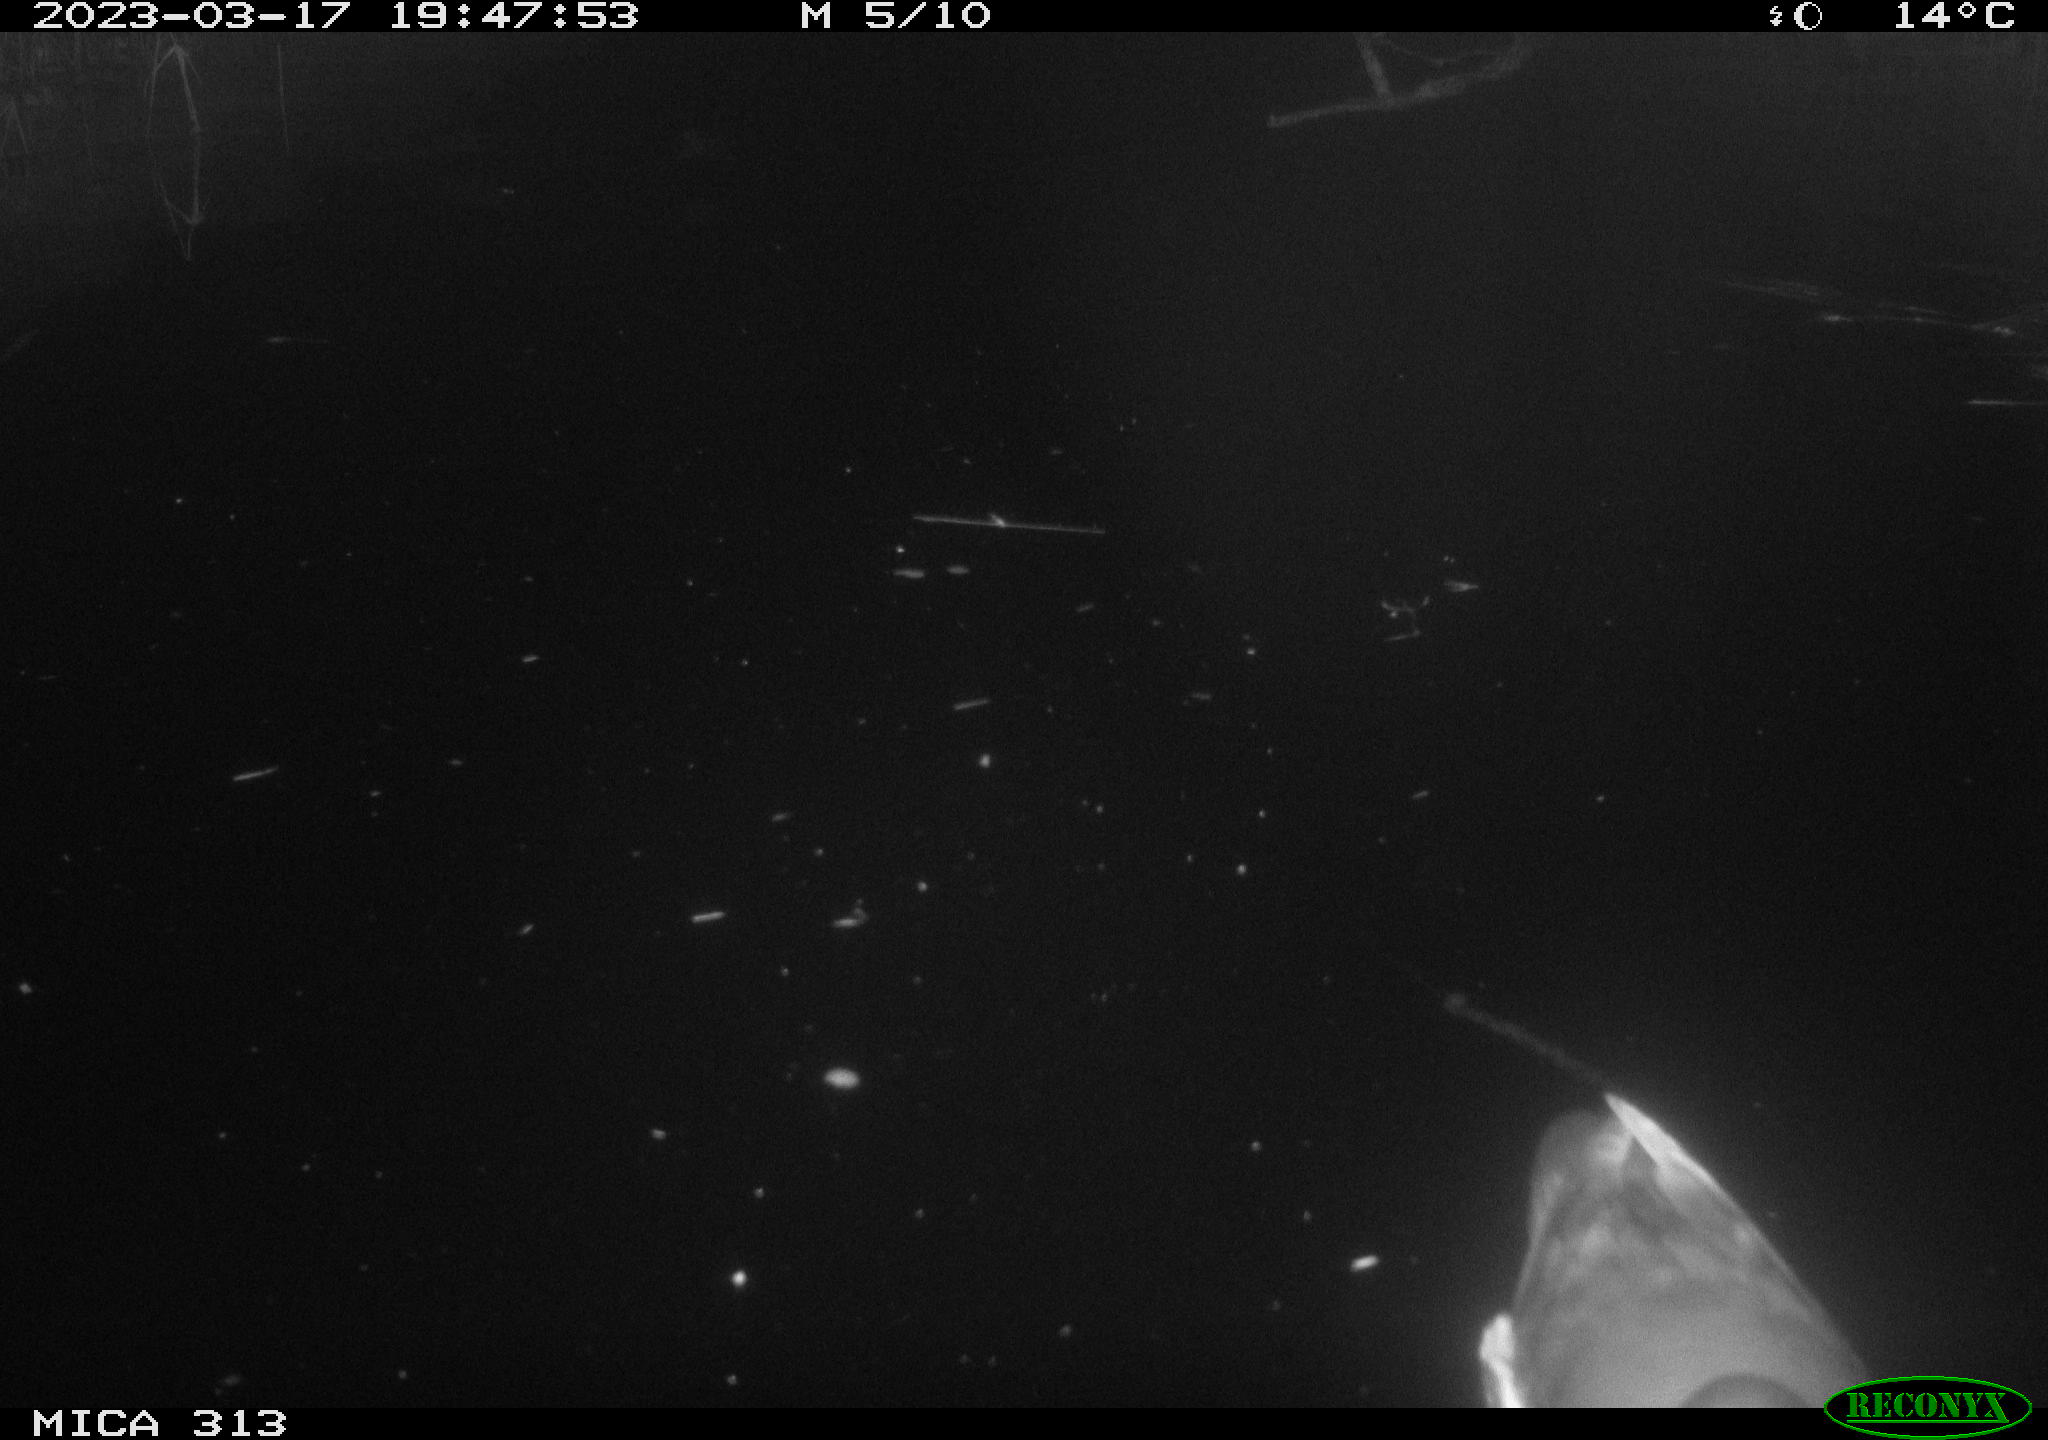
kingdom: Animalia
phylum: Chordata
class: Aves
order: Anseriformes
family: Anatidae
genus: Anas
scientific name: Anas
